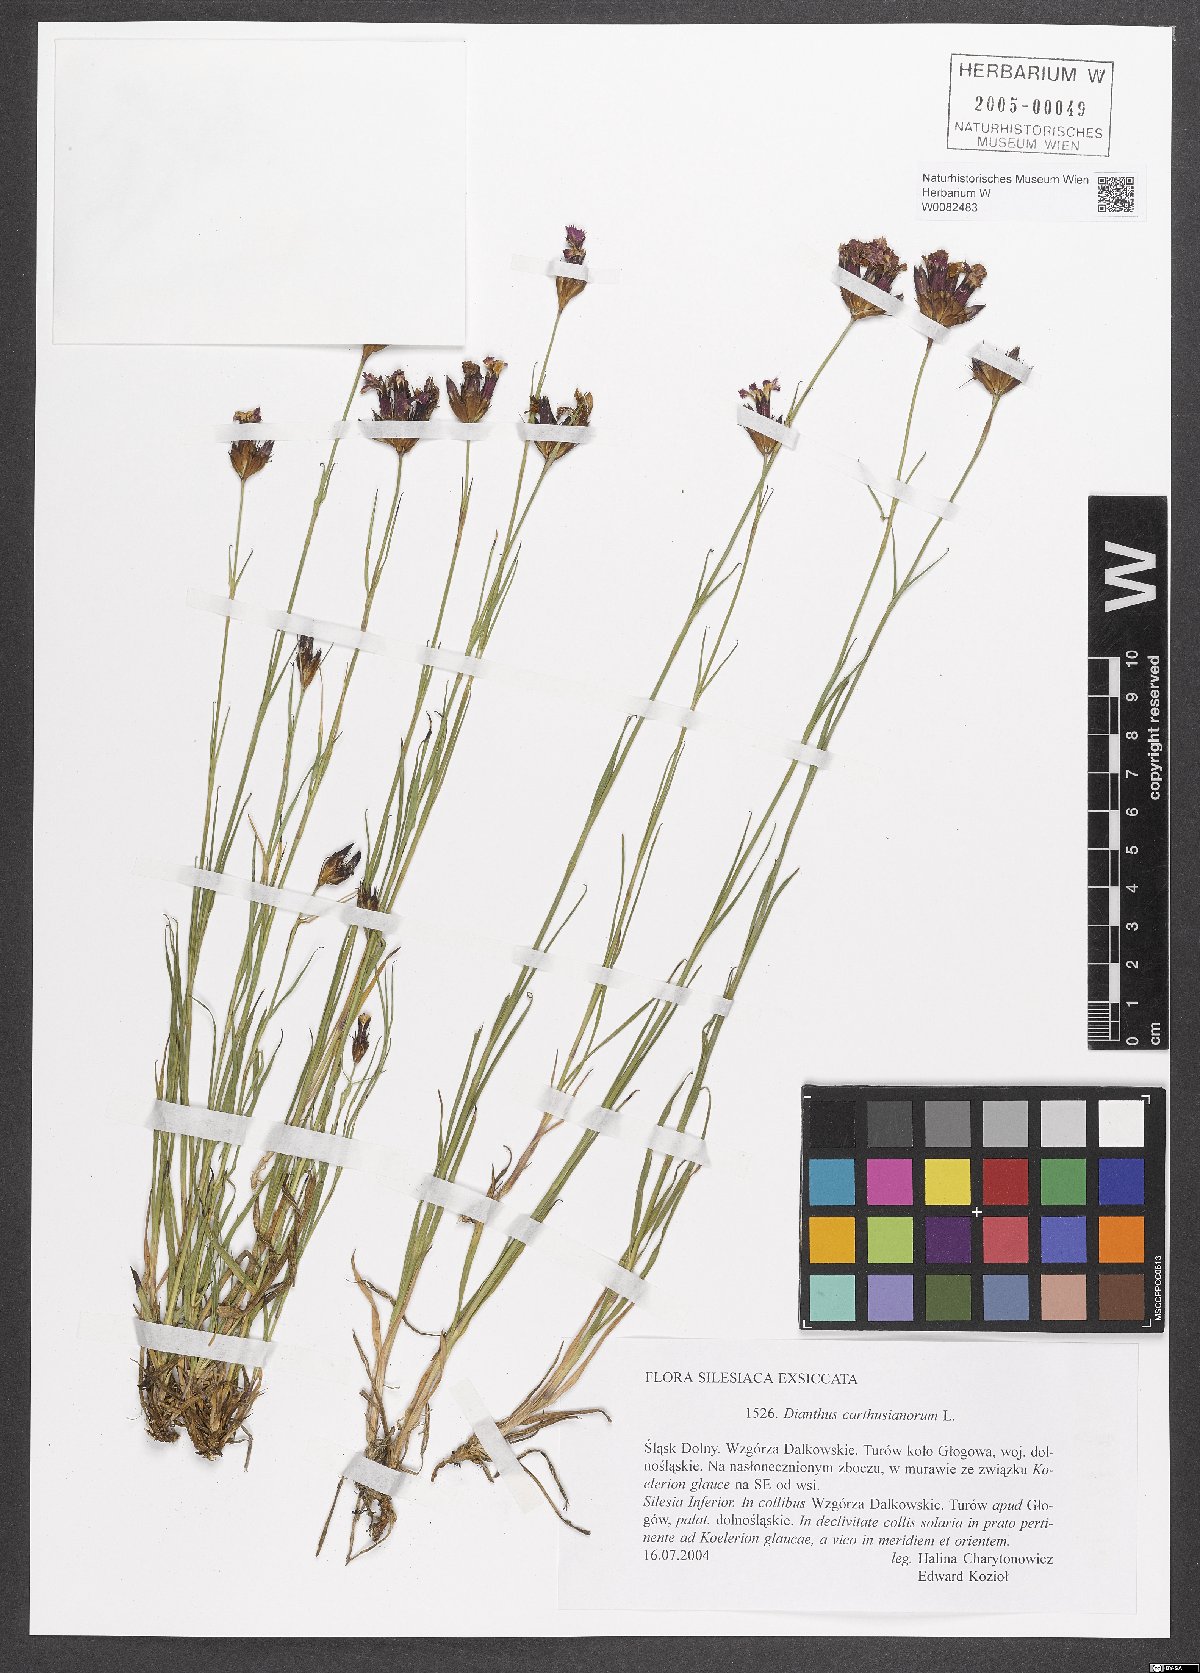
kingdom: Plantae
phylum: Tracheophyta
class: Magnoliopsida
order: Caryophyllales
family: Caryophyllaceae
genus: Dianthus
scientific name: Dianthus carthusianorum
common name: Carthusian pink
